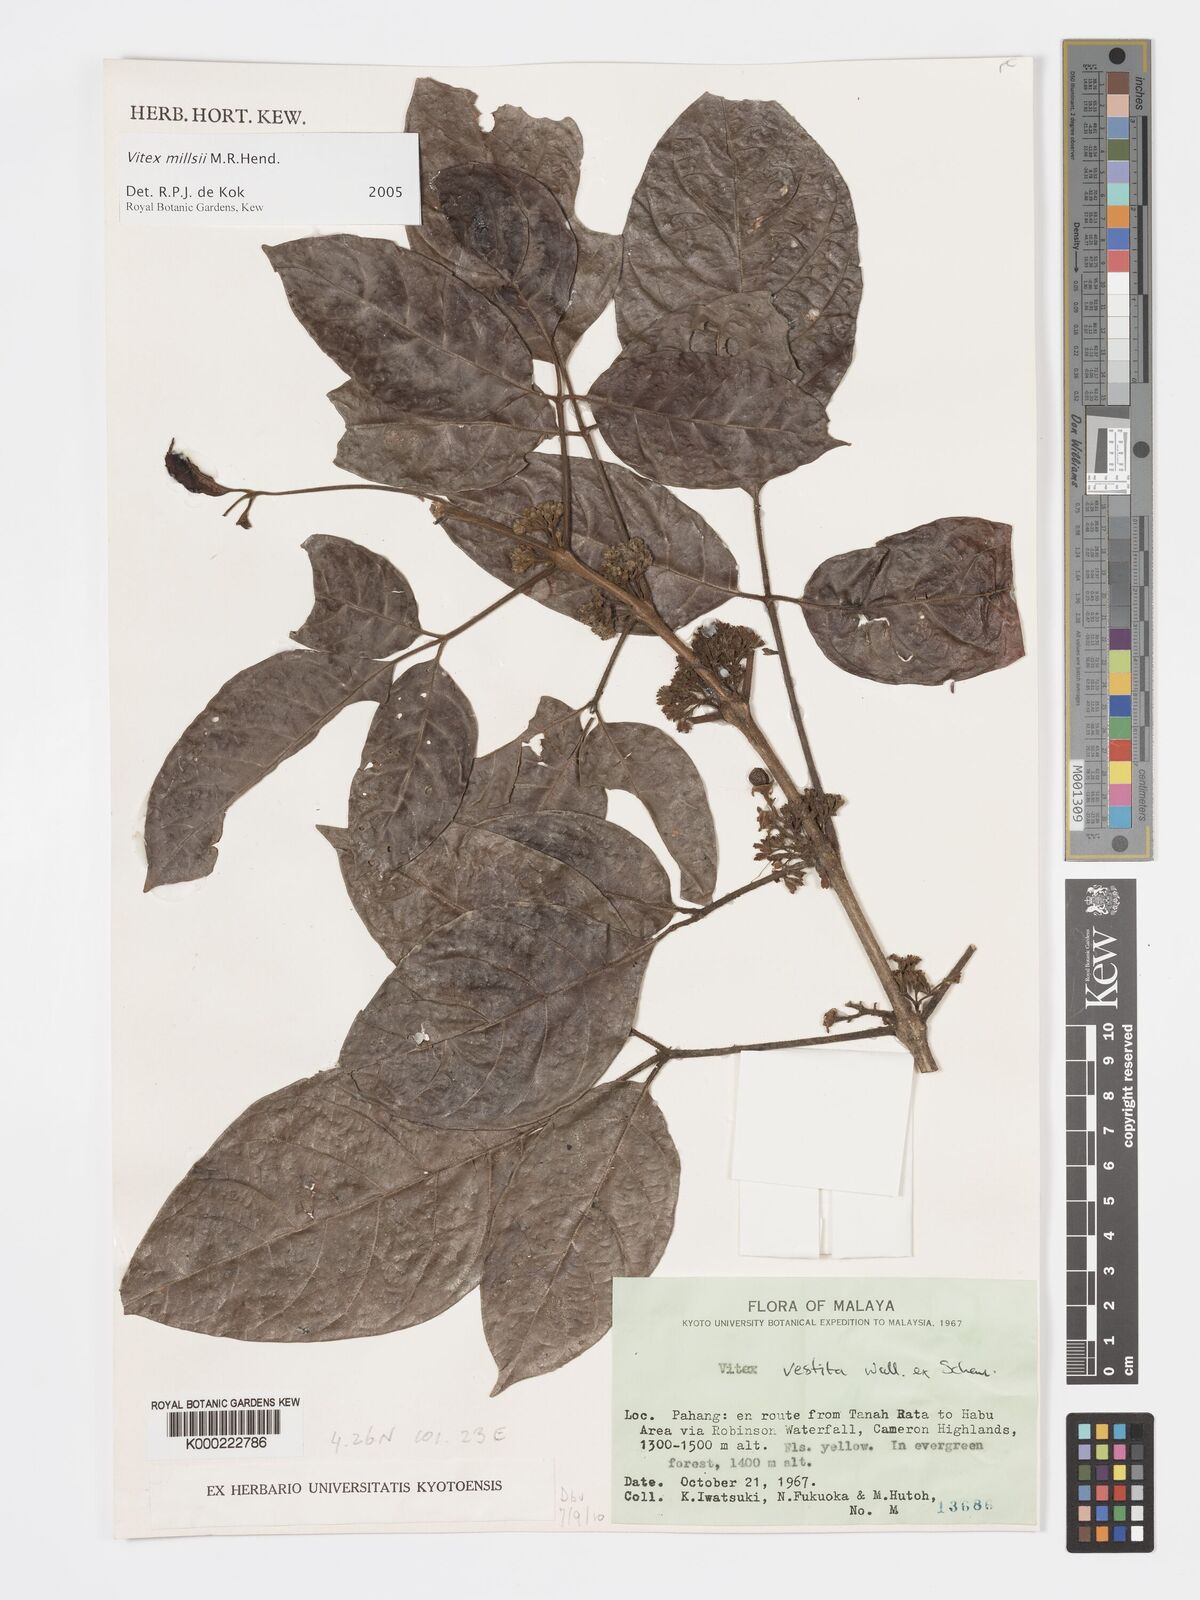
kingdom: Plantae
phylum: Tracheophyta
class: Magnoliopsida
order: Lamiales
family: Lamiaceae
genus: Vitex
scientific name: Vitex millsii
